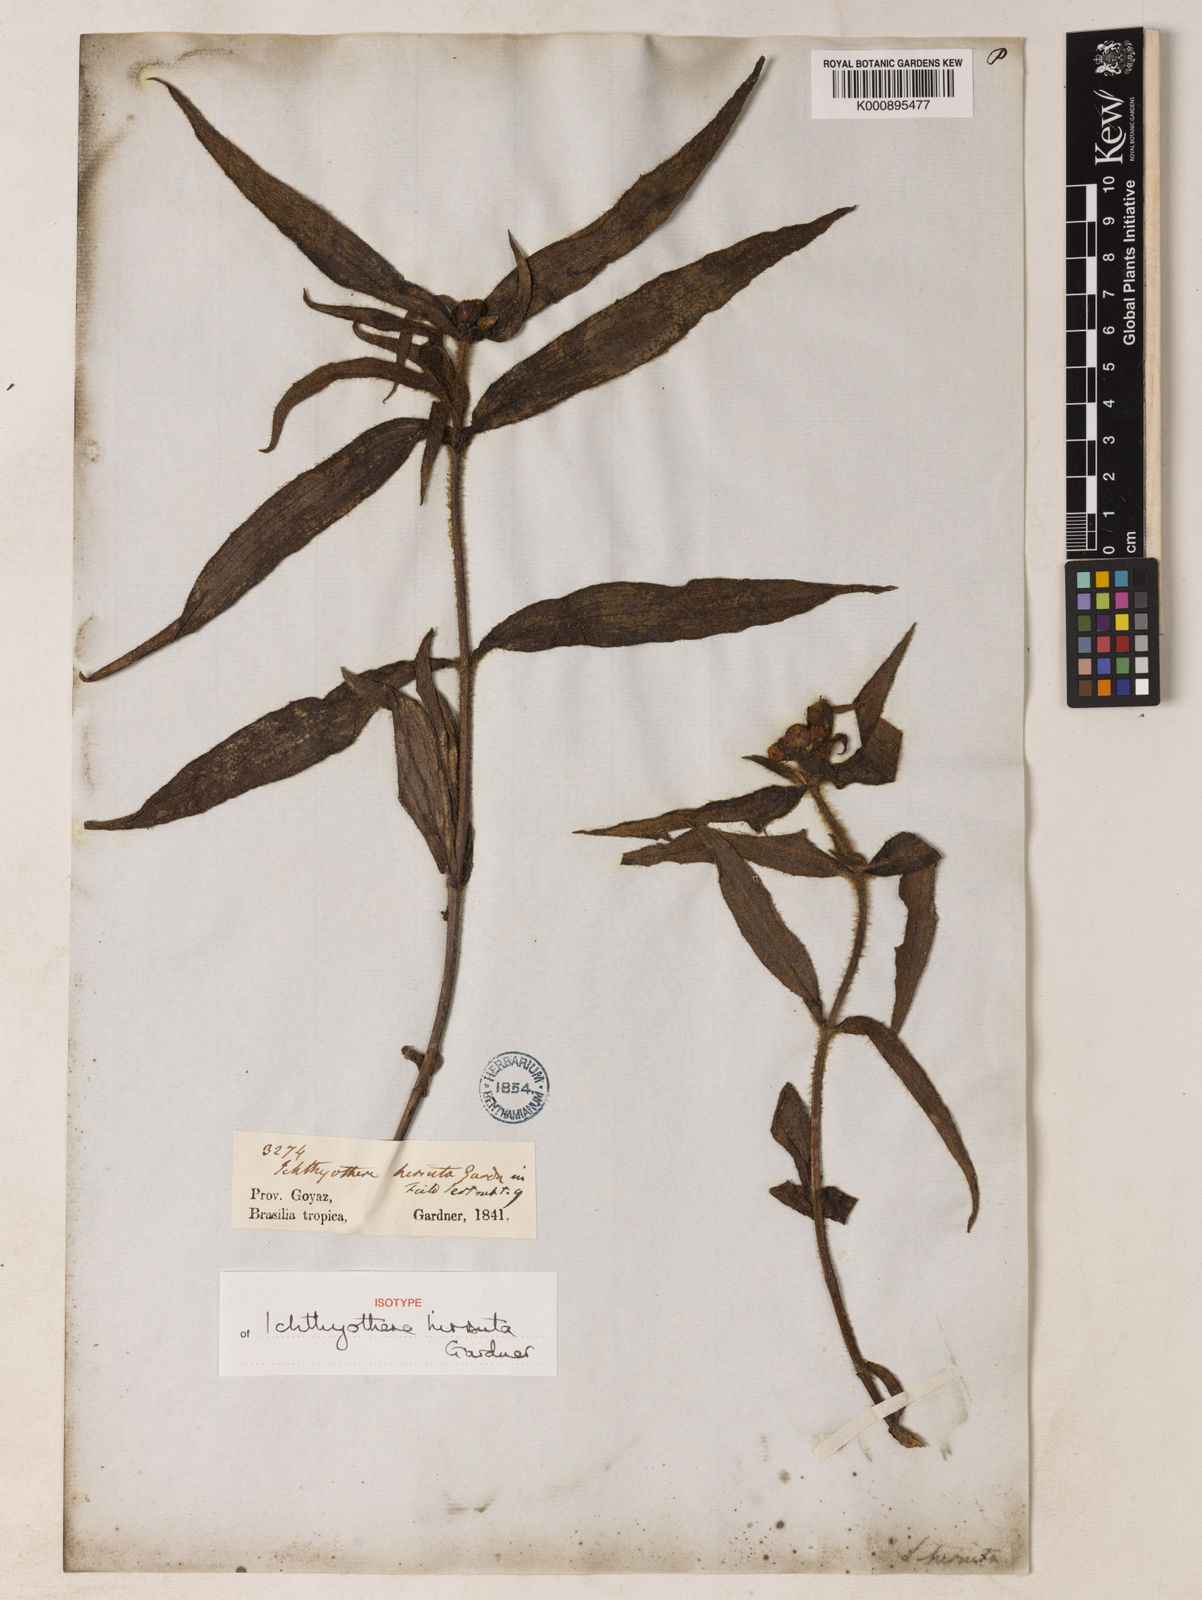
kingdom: Plantae
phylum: Tracheophyta
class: Magnoliopsida
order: Asterales
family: Asteraceae
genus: Ichthyothere
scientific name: Ichthyothere hirsuta
